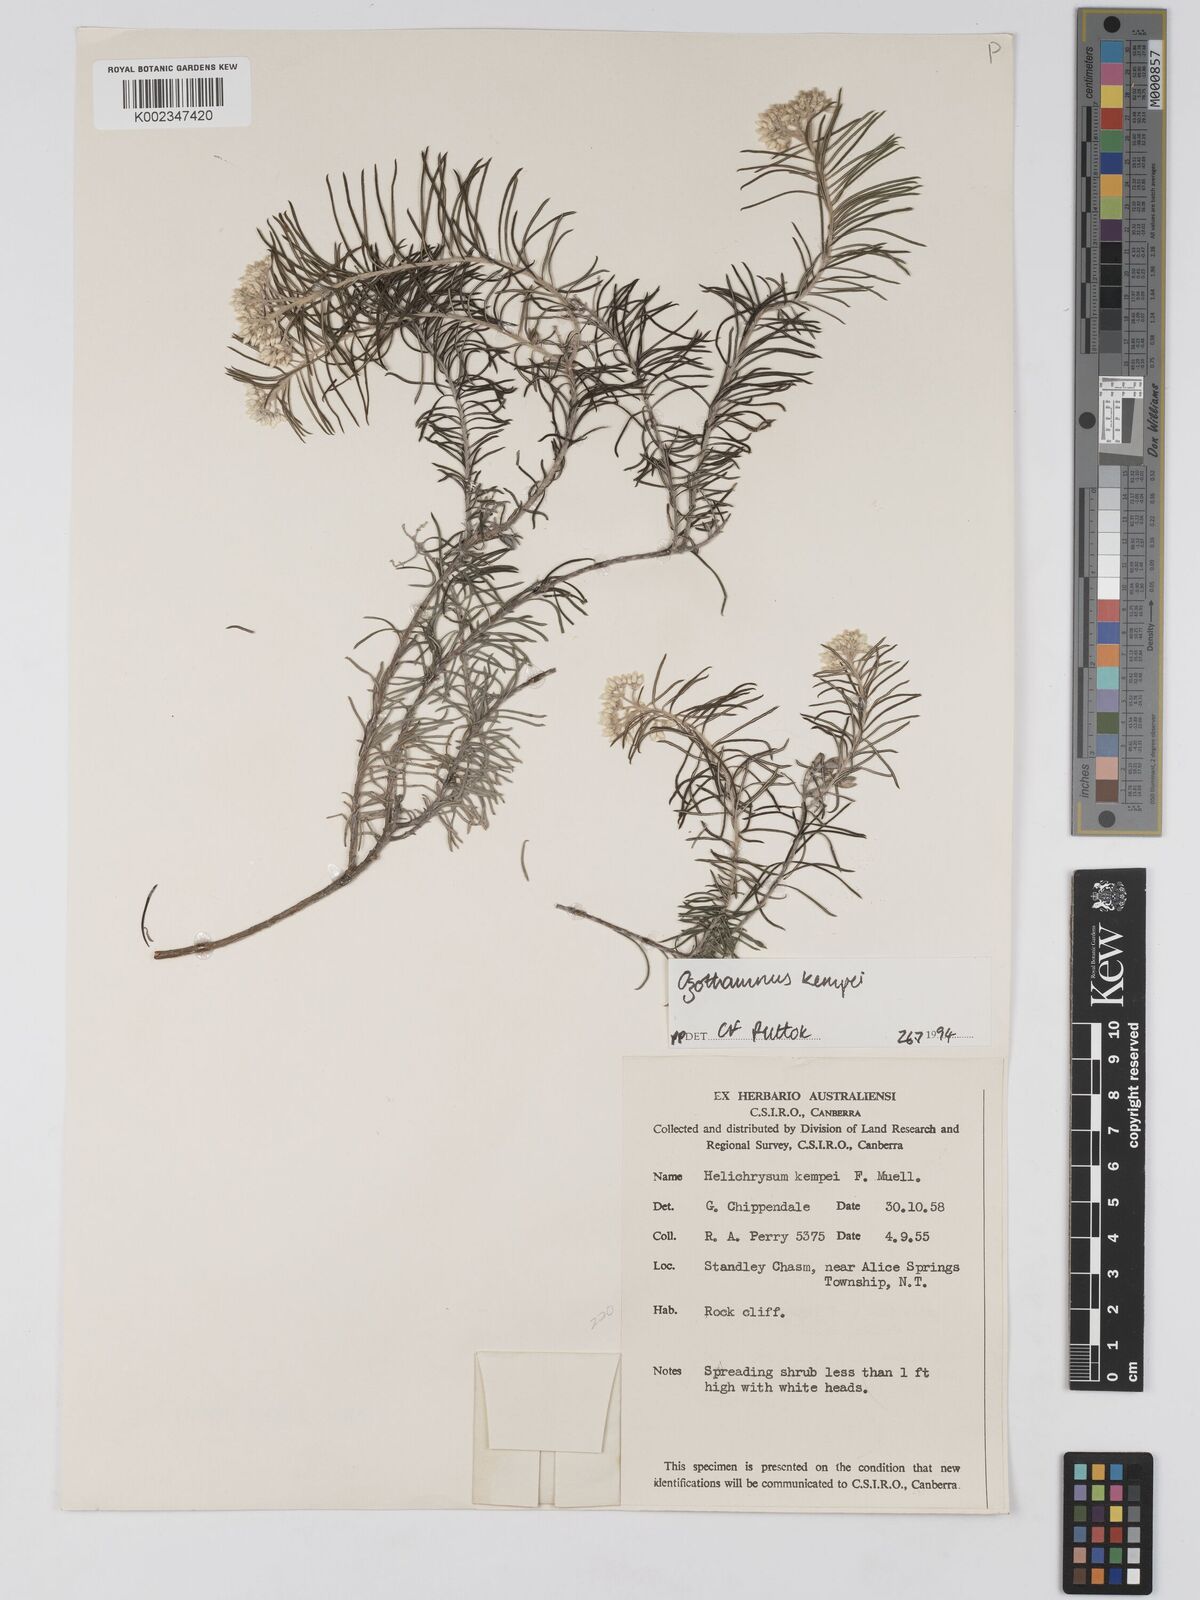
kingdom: Plantae
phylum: Tracheophyta
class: Magnoliopsida
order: Asterales
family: Asteraceae
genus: Ozothamnus
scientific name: Ozothamnus kempei
